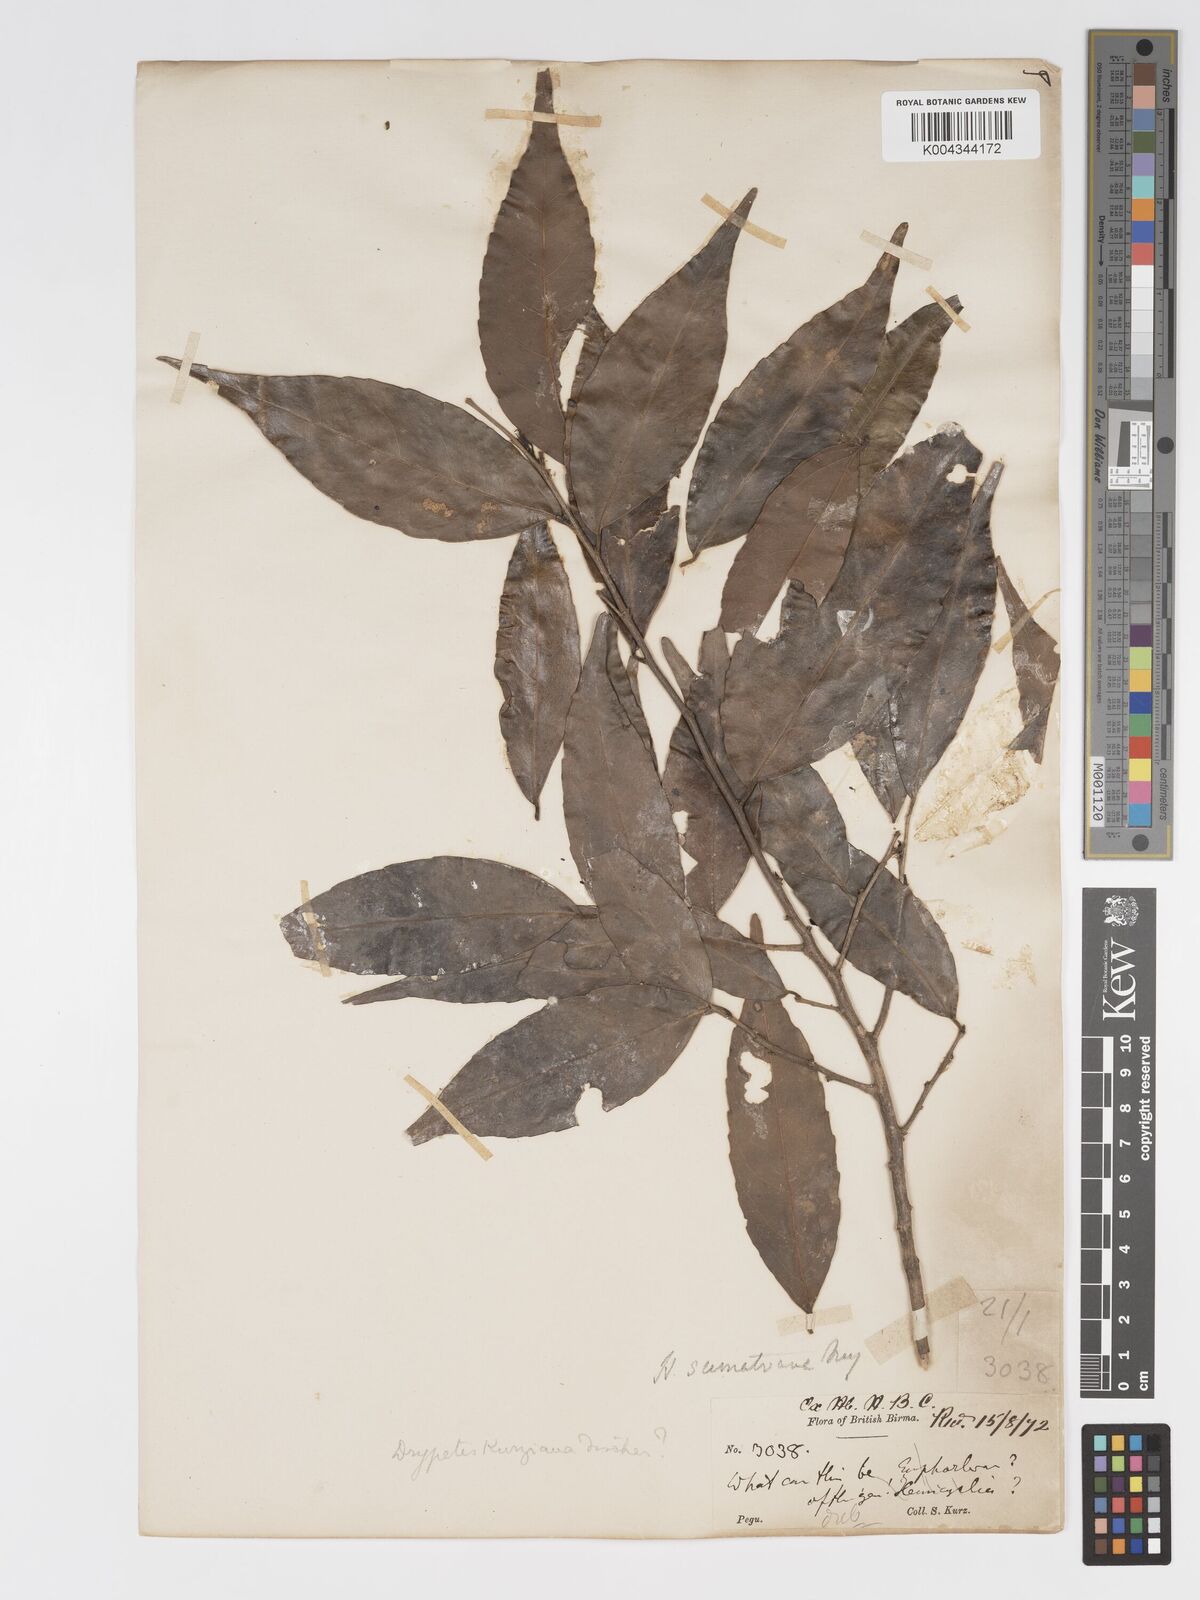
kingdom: Plantae
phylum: Tracheophyta
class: Magnoliopsida
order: Malpighiales
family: Putranjivaceae
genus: Drypetes
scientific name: Drypetes sumatrana
